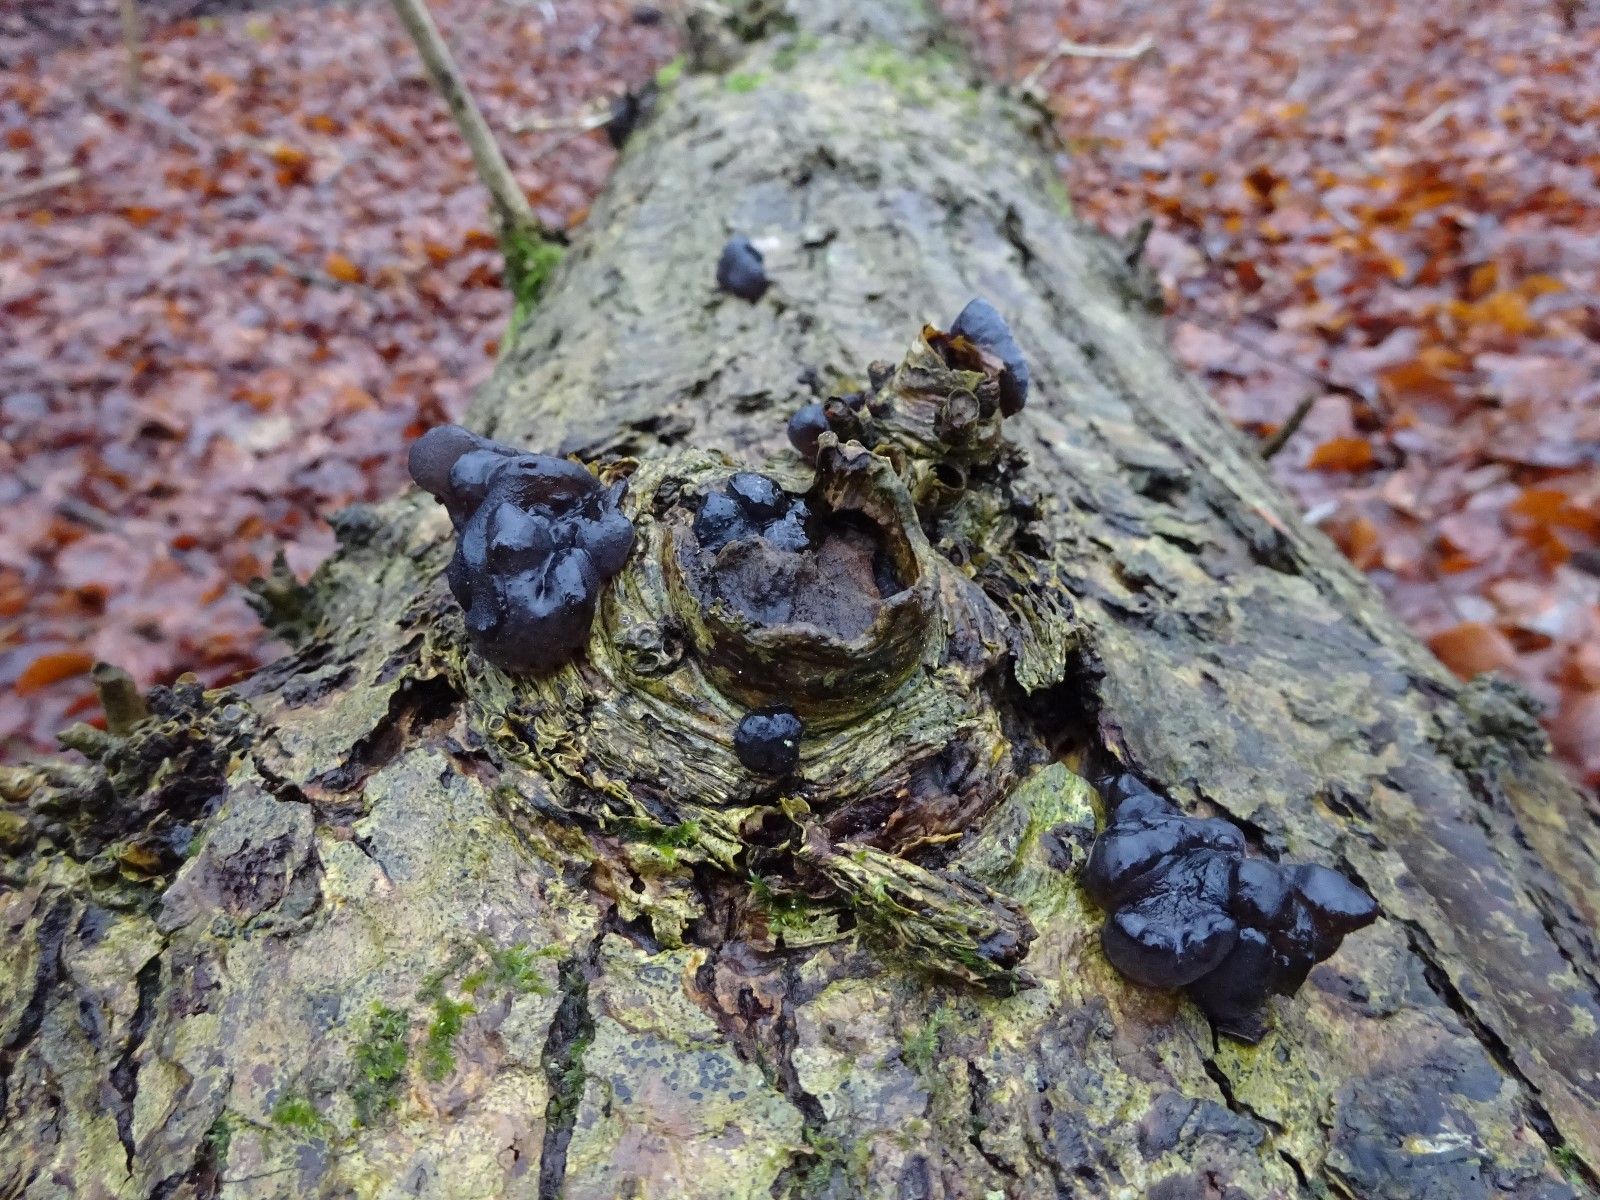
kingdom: Fungi
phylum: Basidiomycota
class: Agaricomycetes
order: Auriculariales
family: Auriculariaceae
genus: Exidia
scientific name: Exidia glandulosa
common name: ege-bævretop
